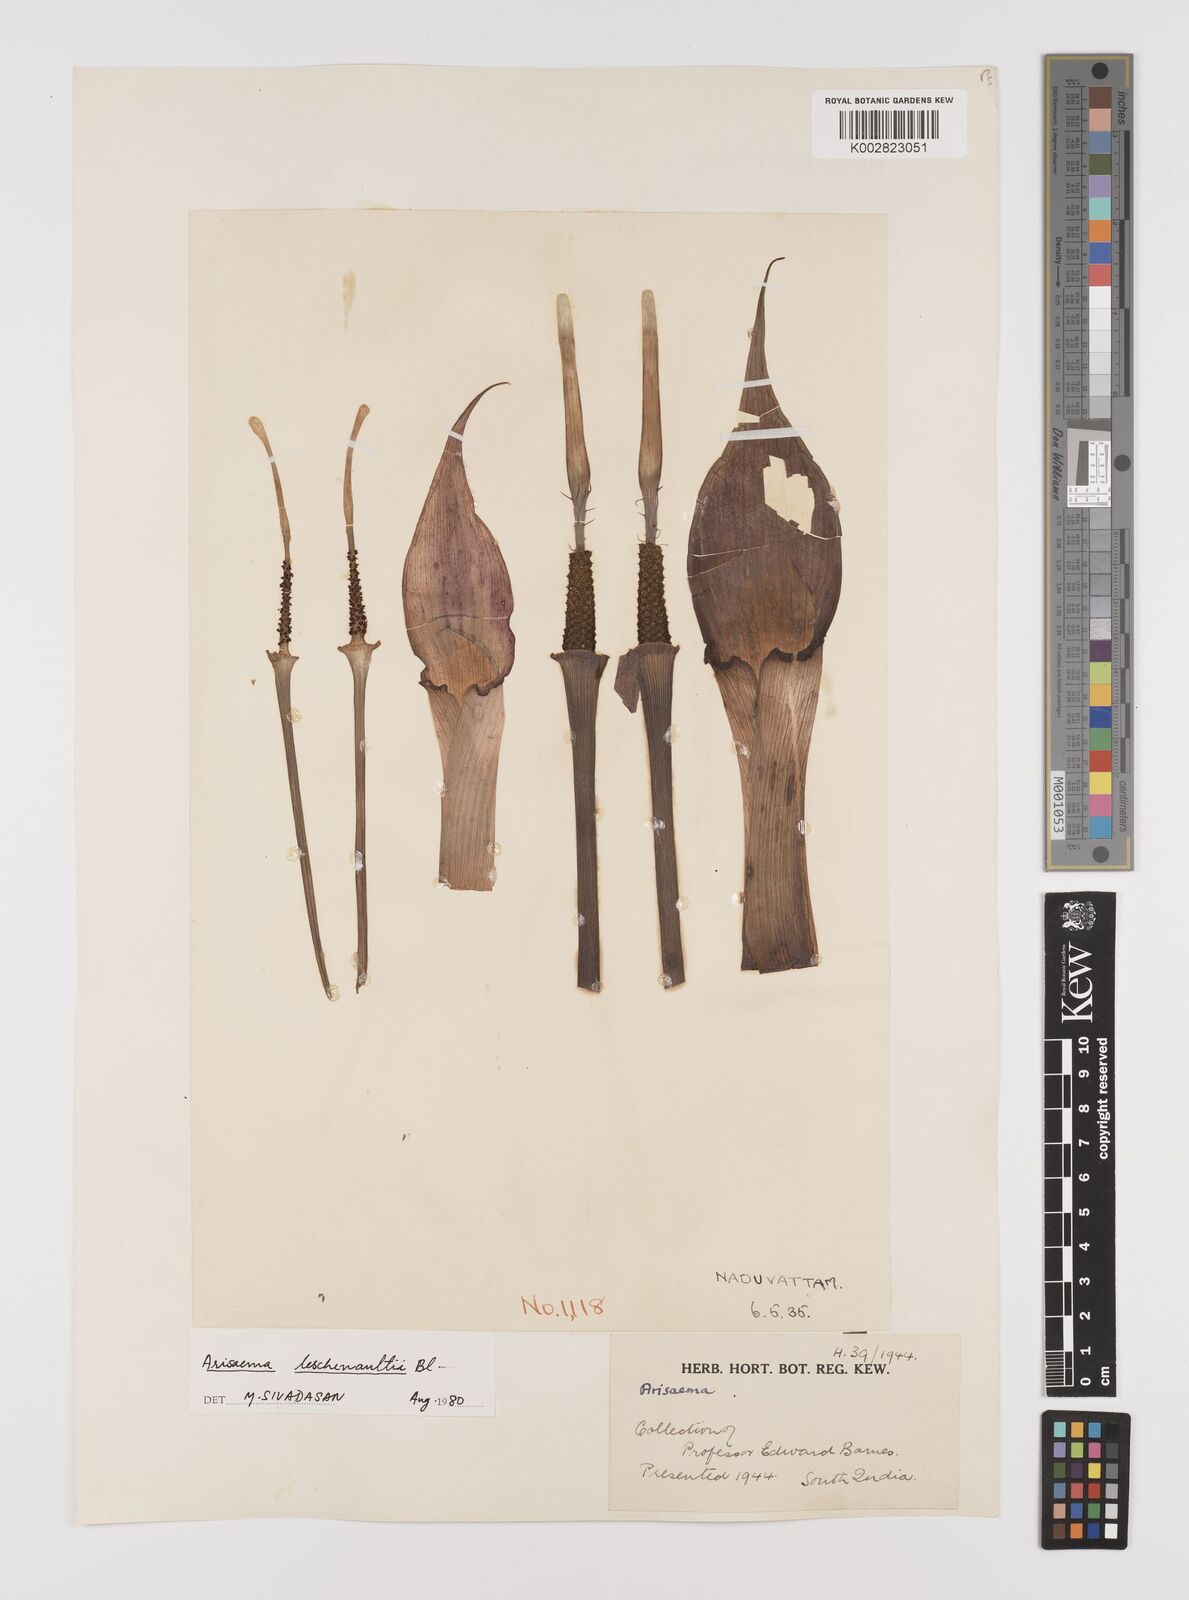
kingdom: Plantae
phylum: Tracheophyta
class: Liliopsida
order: Alismatales
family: Araceae
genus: Arisaema
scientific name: Arisaema leschenaultii
